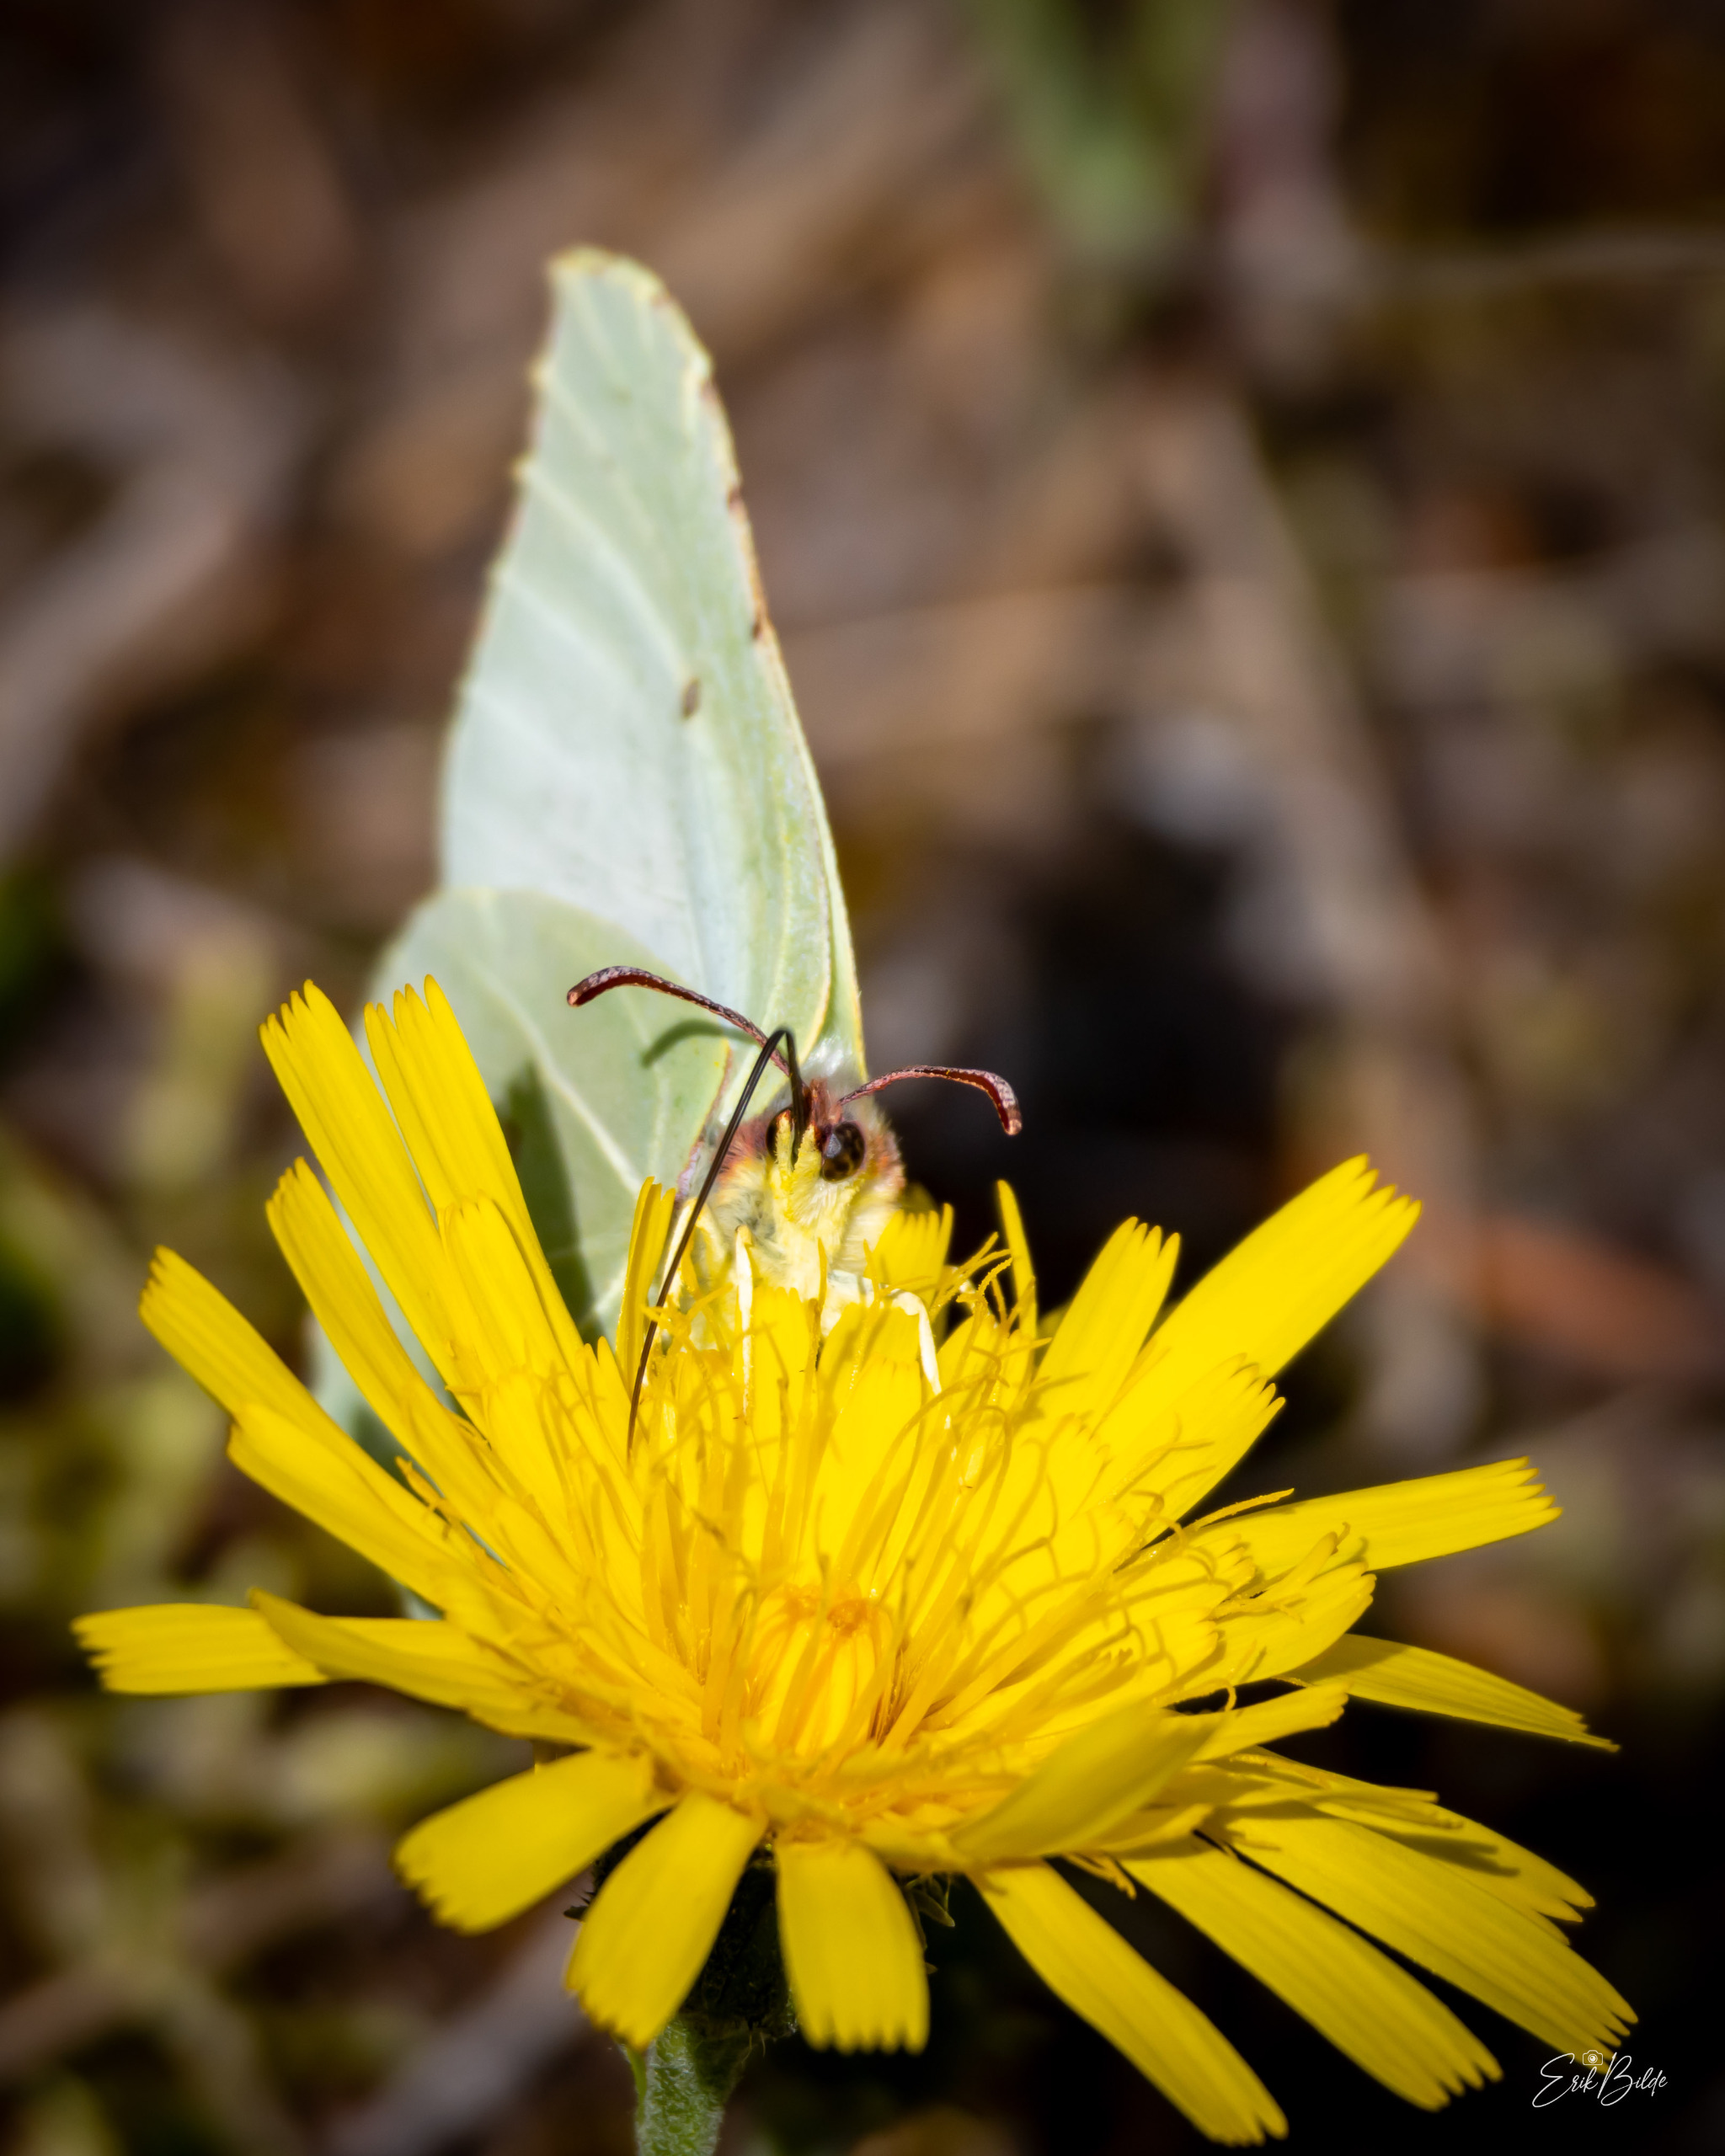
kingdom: Animalia
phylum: Arthropoda
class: Insecta
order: Lepidoptera
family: Pieridae
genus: Gonepteryx
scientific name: Gonepteryx rhamni
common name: Citronsommerfugl
